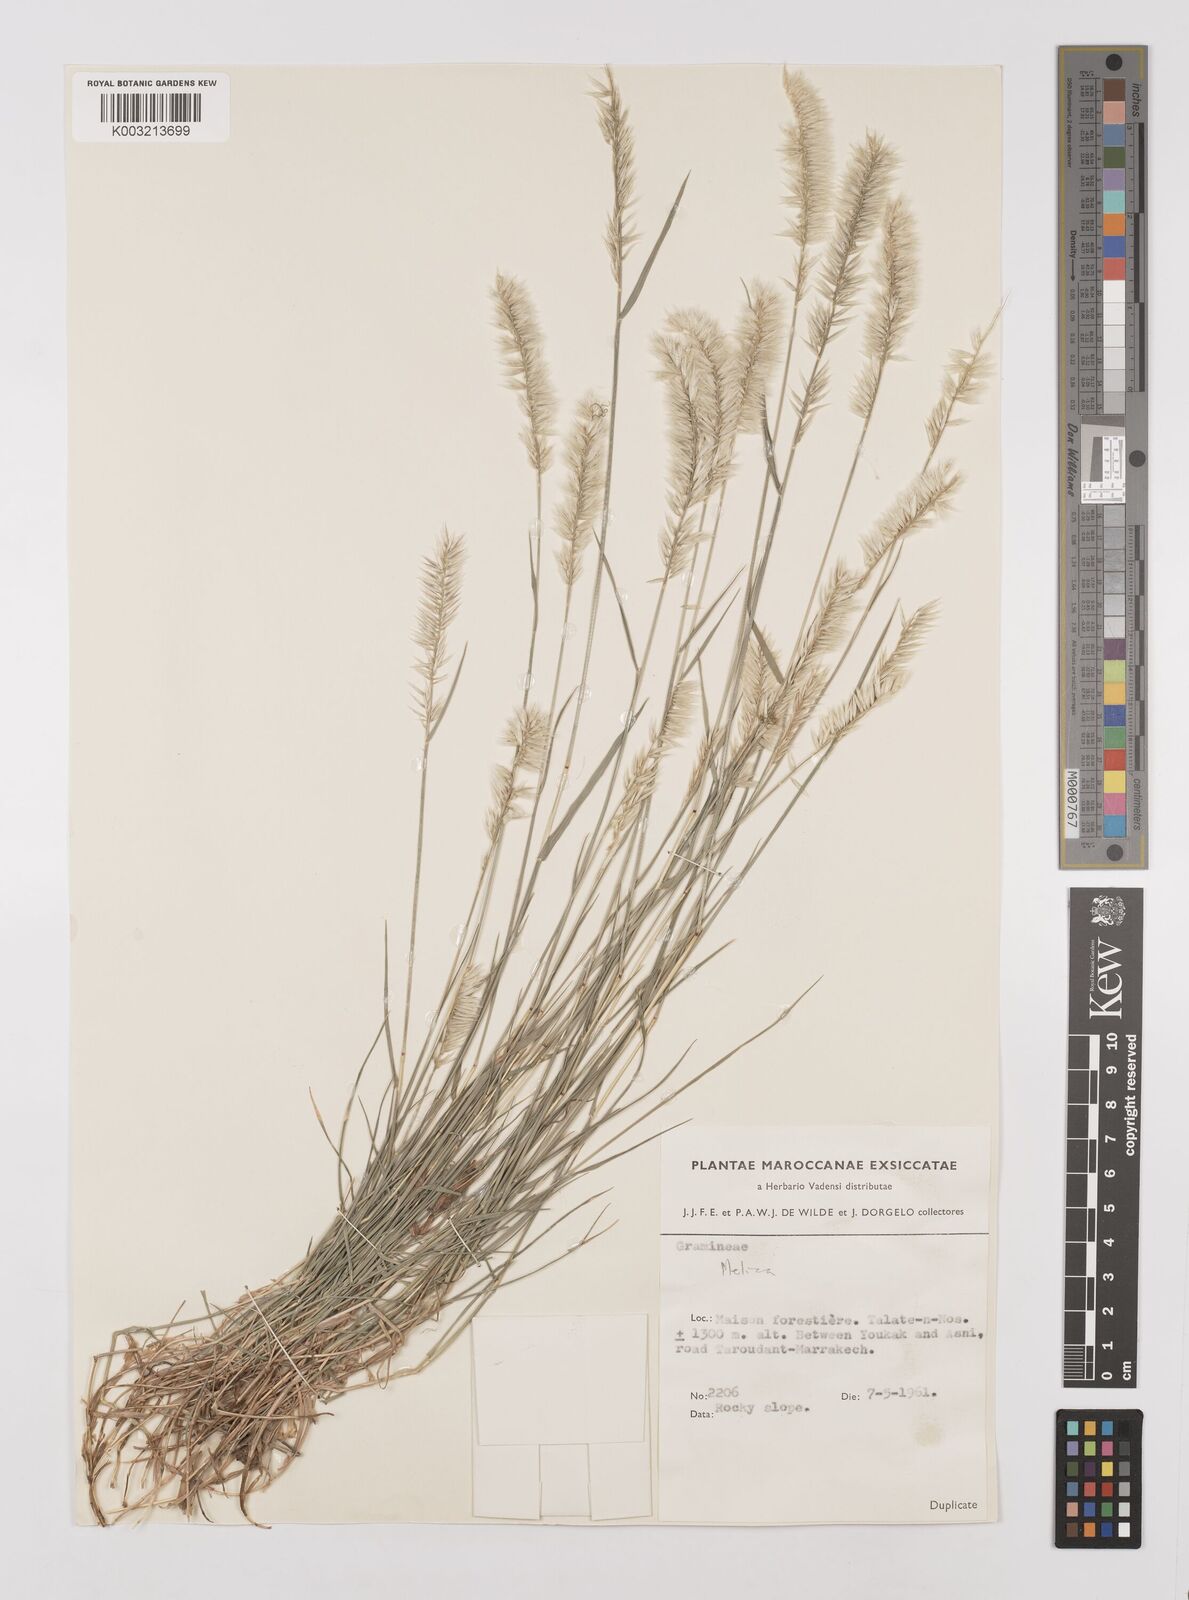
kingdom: Plantae
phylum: Tracheophyta
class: Liliopsida
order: Poales
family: Poaceae
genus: Melica
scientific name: Melica ciliata
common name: Hairy melicgrass
